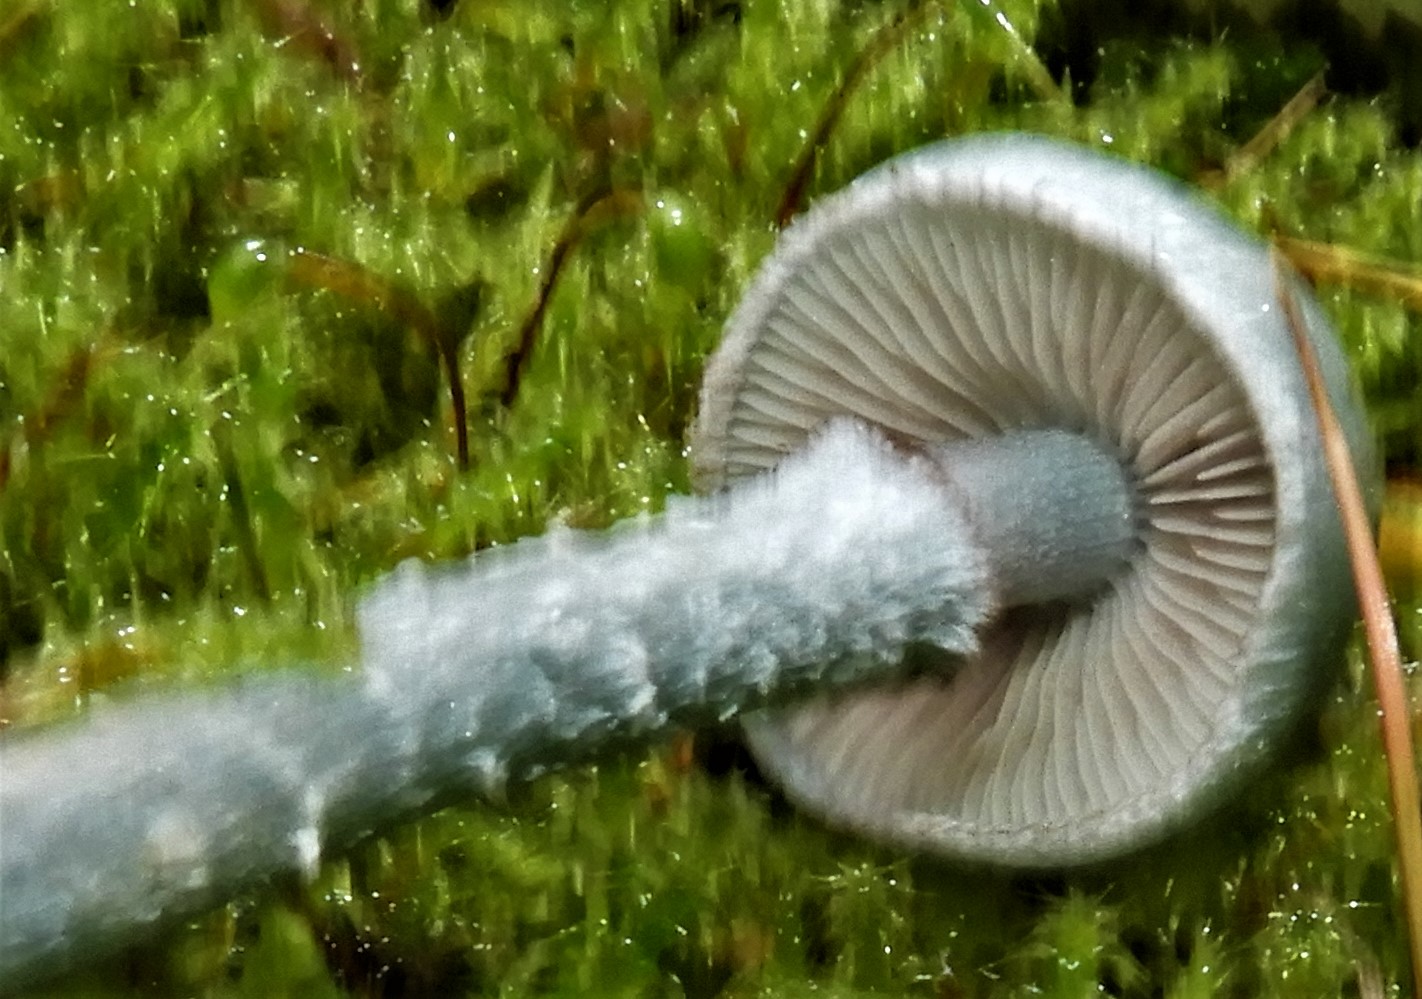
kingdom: Fungi
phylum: Basidiomycota
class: Agaricomycetes
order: Agaricales
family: Strophariaceae
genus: Stropharia
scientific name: Stropharia cyanea
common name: blågrøn bredblad
